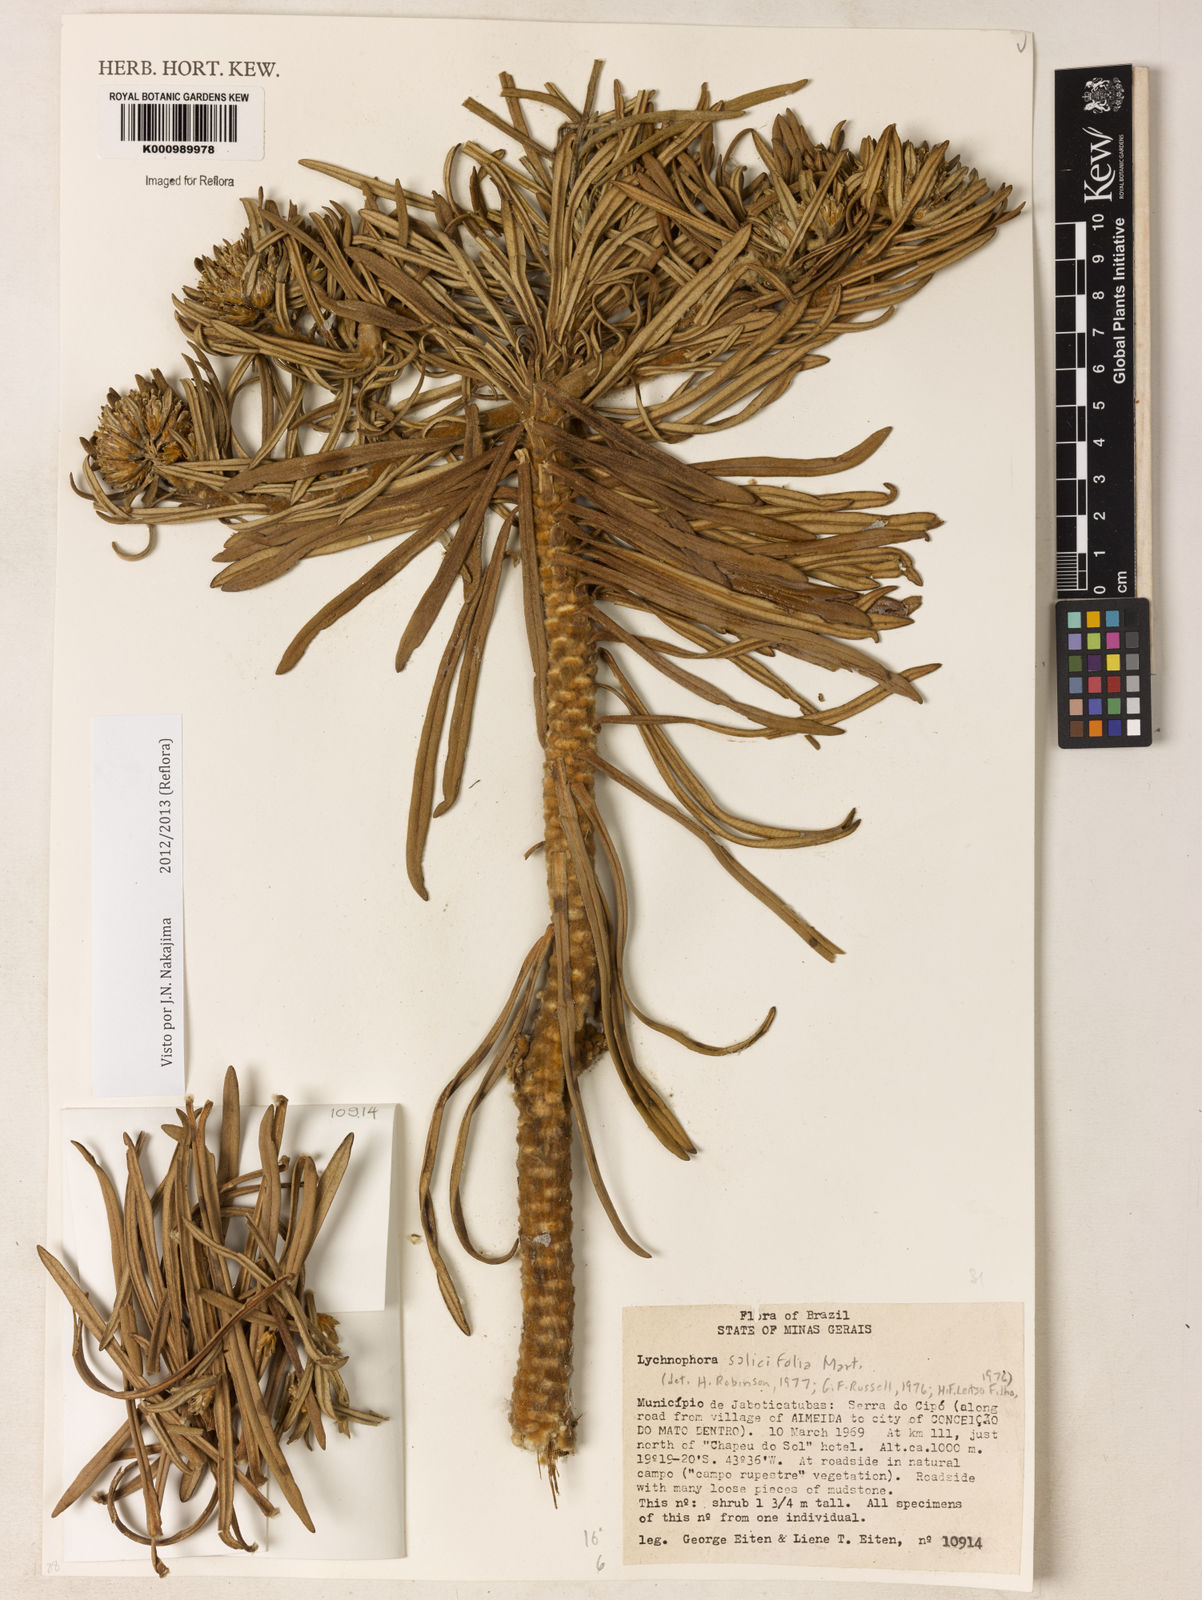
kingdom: Plantae
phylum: Tracheophyta
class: Magnoliopsida
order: Asterales
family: Asteraceae
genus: Lychnophora
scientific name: Lychnophora salicifolia
